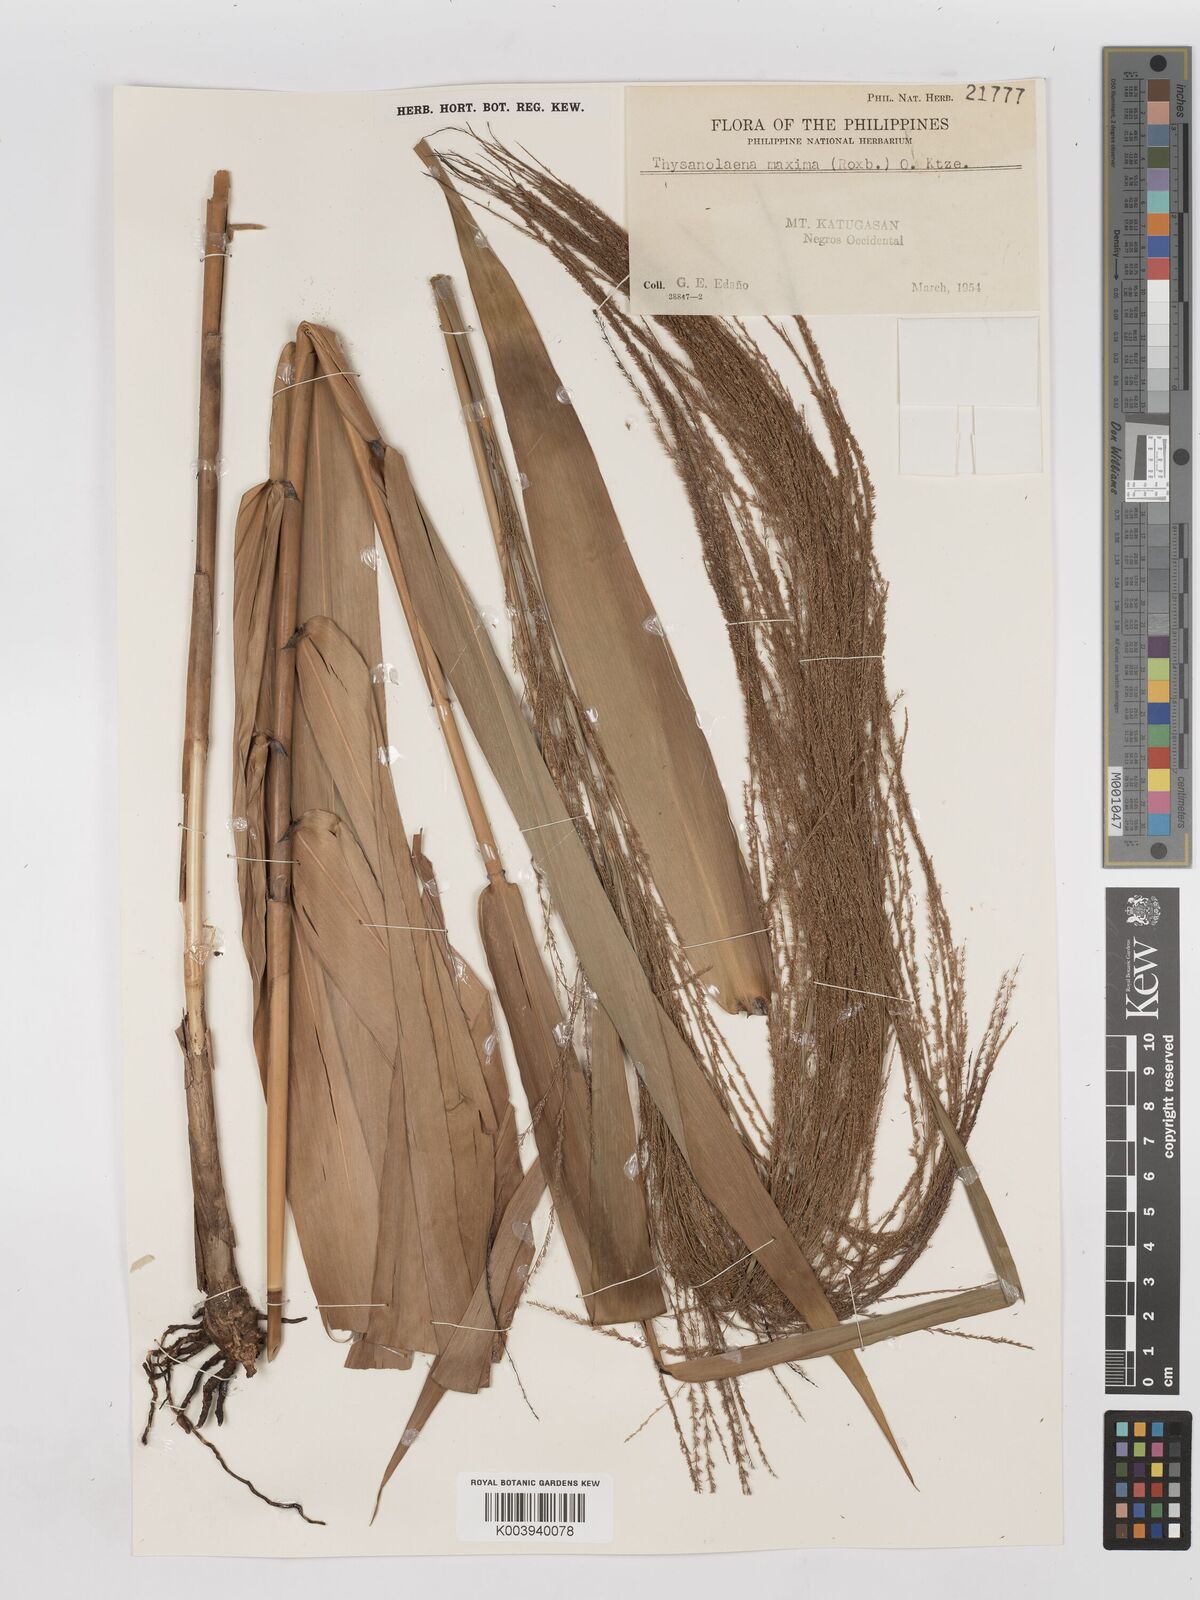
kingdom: Plantae
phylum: Tracheophyta
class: Liliopsida
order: Poales
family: Poaceae
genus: Thysanolaena
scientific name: Thysanolaena latifolia
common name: Tiger grass
